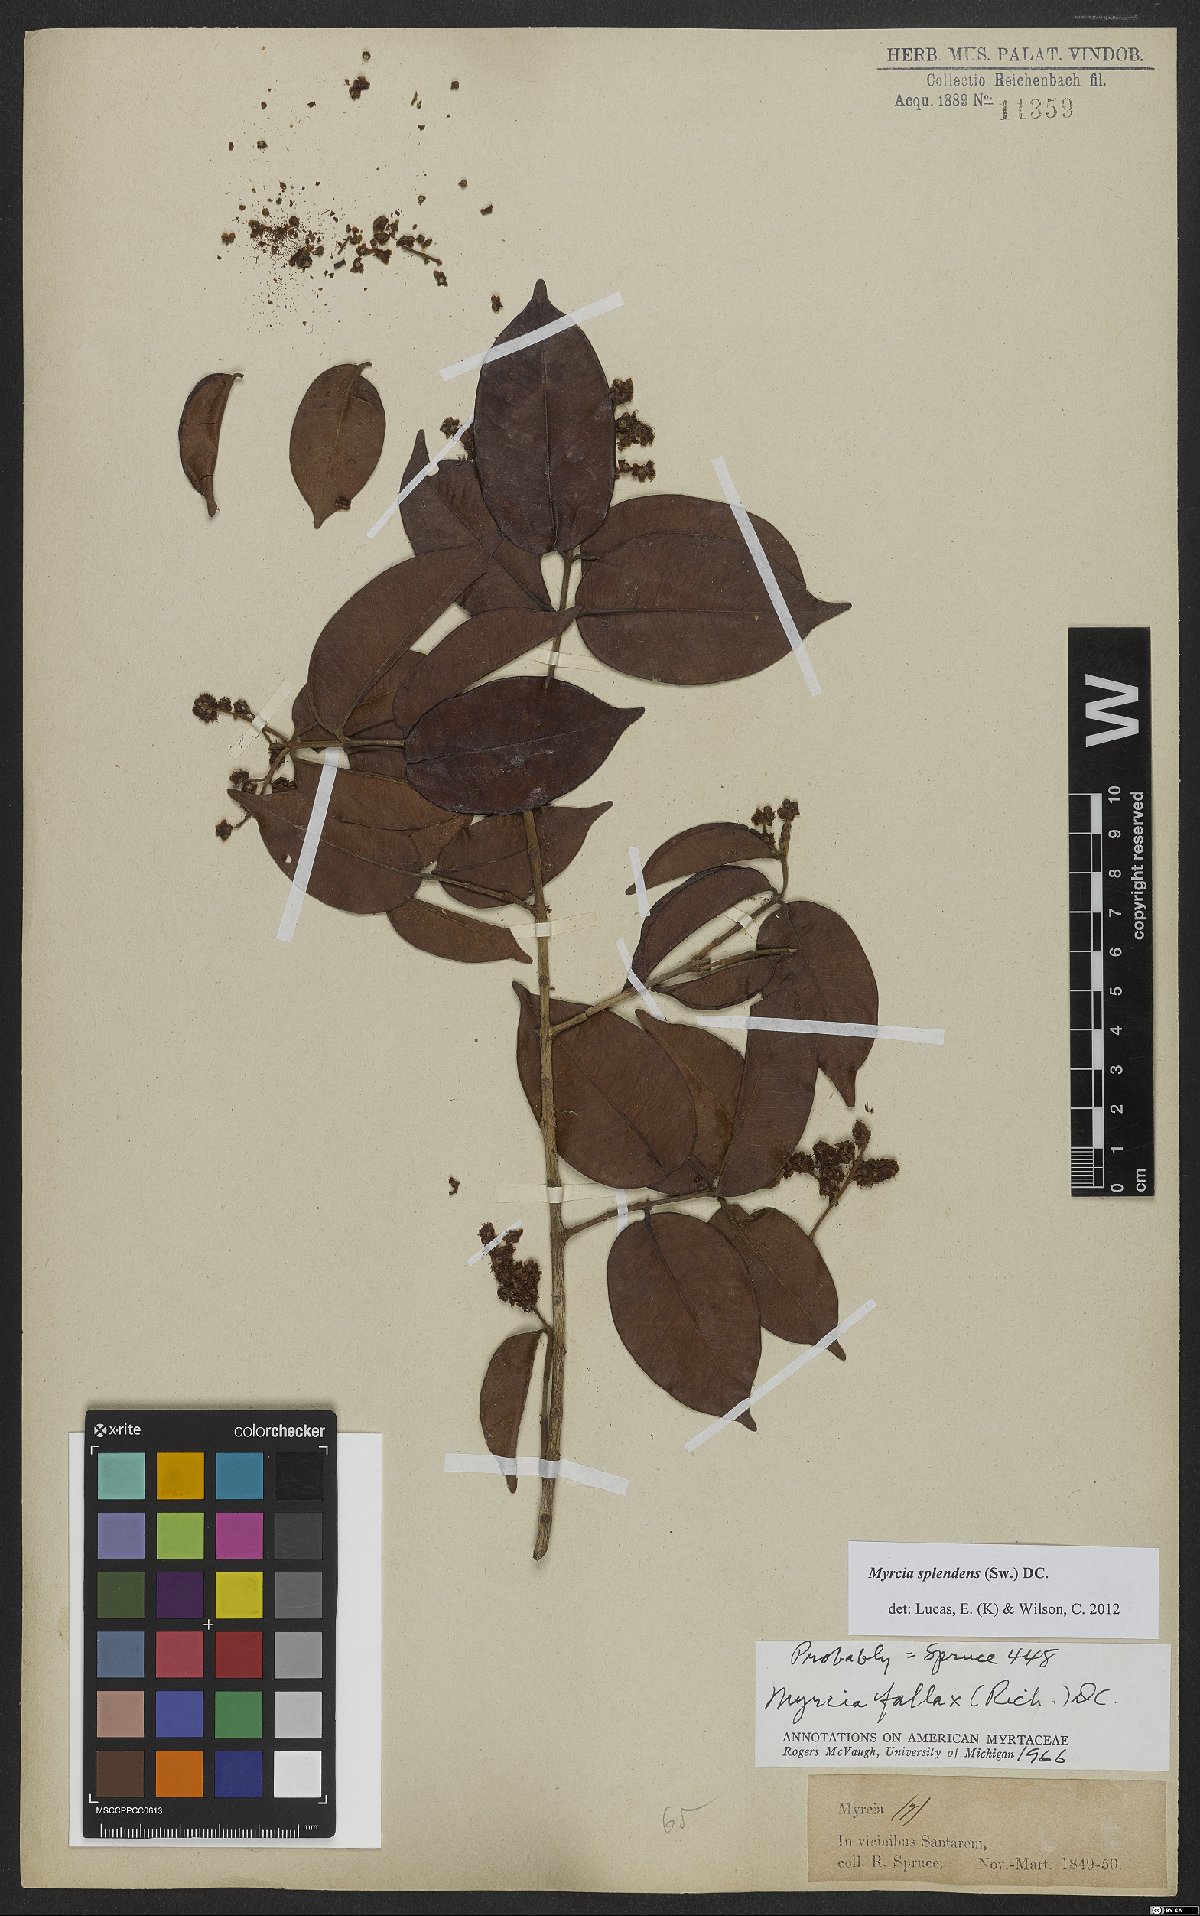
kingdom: Plantae
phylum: Tracheophyta
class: Magnoliopsida
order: Myrtales
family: Myrtaceae
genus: Myrcia
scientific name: Myrcia splendens
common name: Surinam cherry
